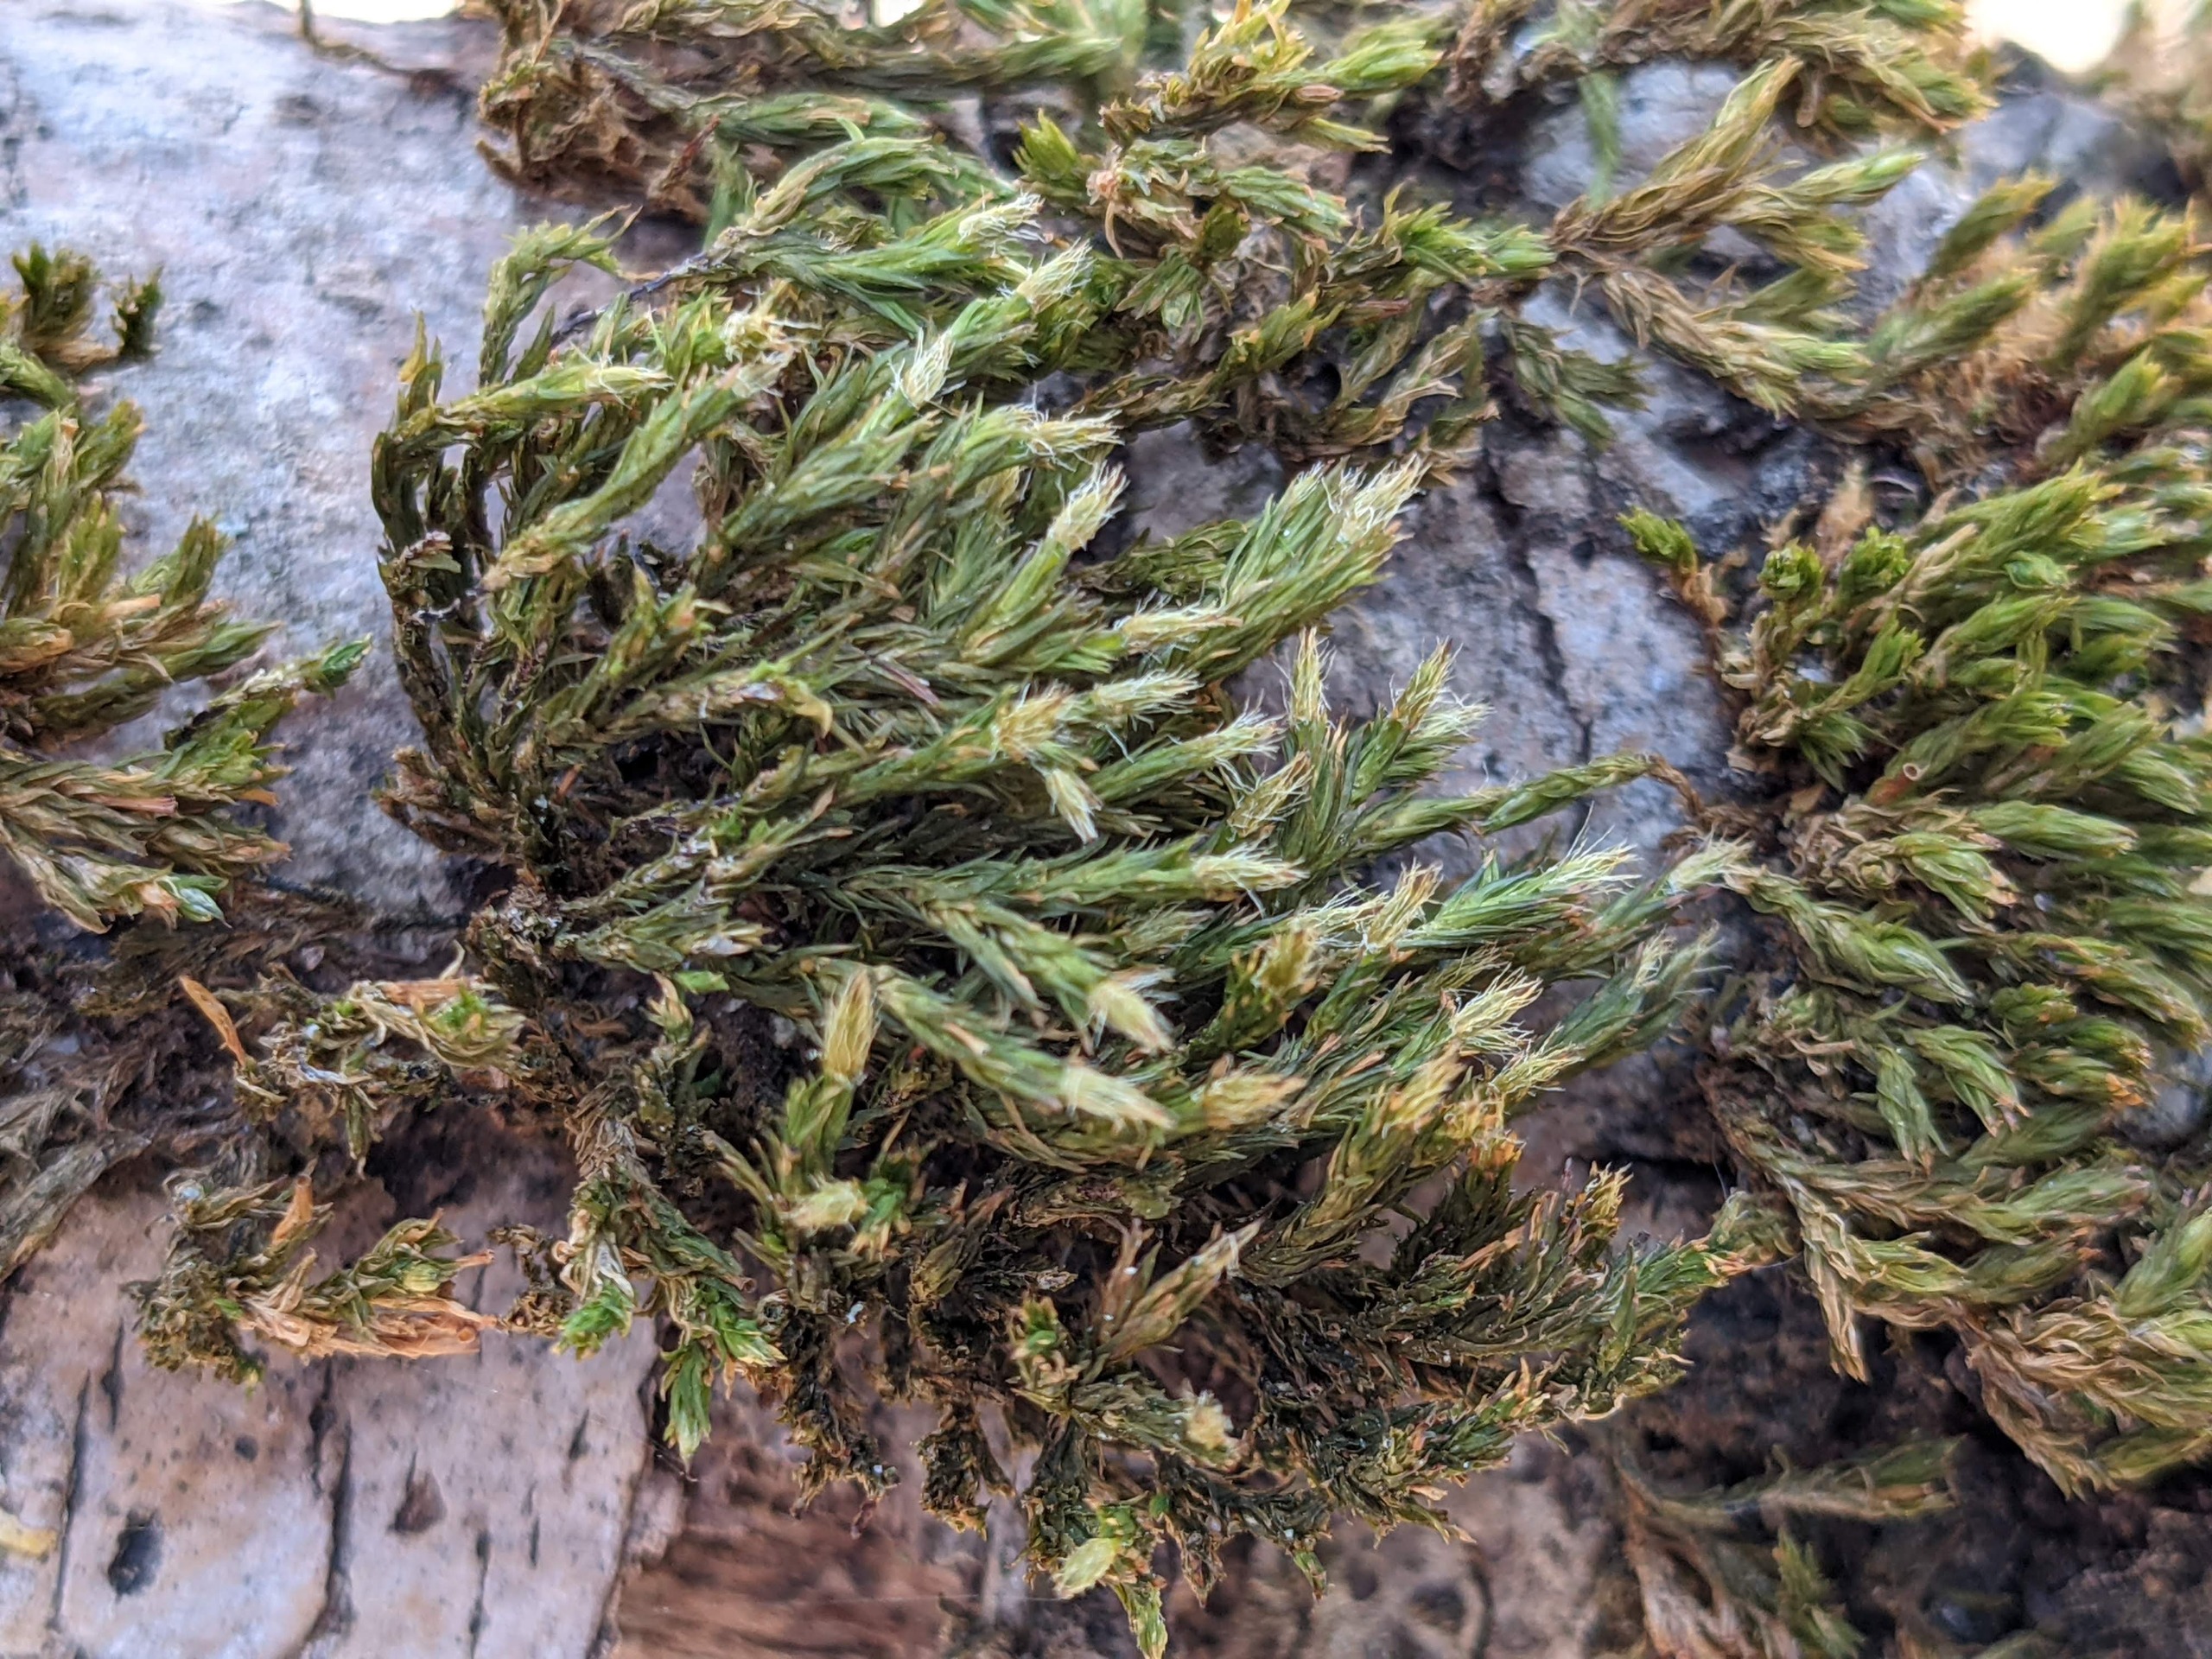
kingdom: Plantae
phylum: Bryophyta
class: Bryopsida
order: Orthotrichales
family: Orthotrichaceae
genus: Lewinskya
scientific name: Lewinskya speciosa
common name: Kortstribet furehætte
